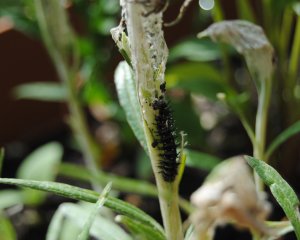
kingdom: Animalia
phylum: Arthropoda
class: Insecta
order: Lepidoptera
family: Nymphalidae
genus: Vanessa
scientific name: Vanessa virginiensis
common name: American Lady
